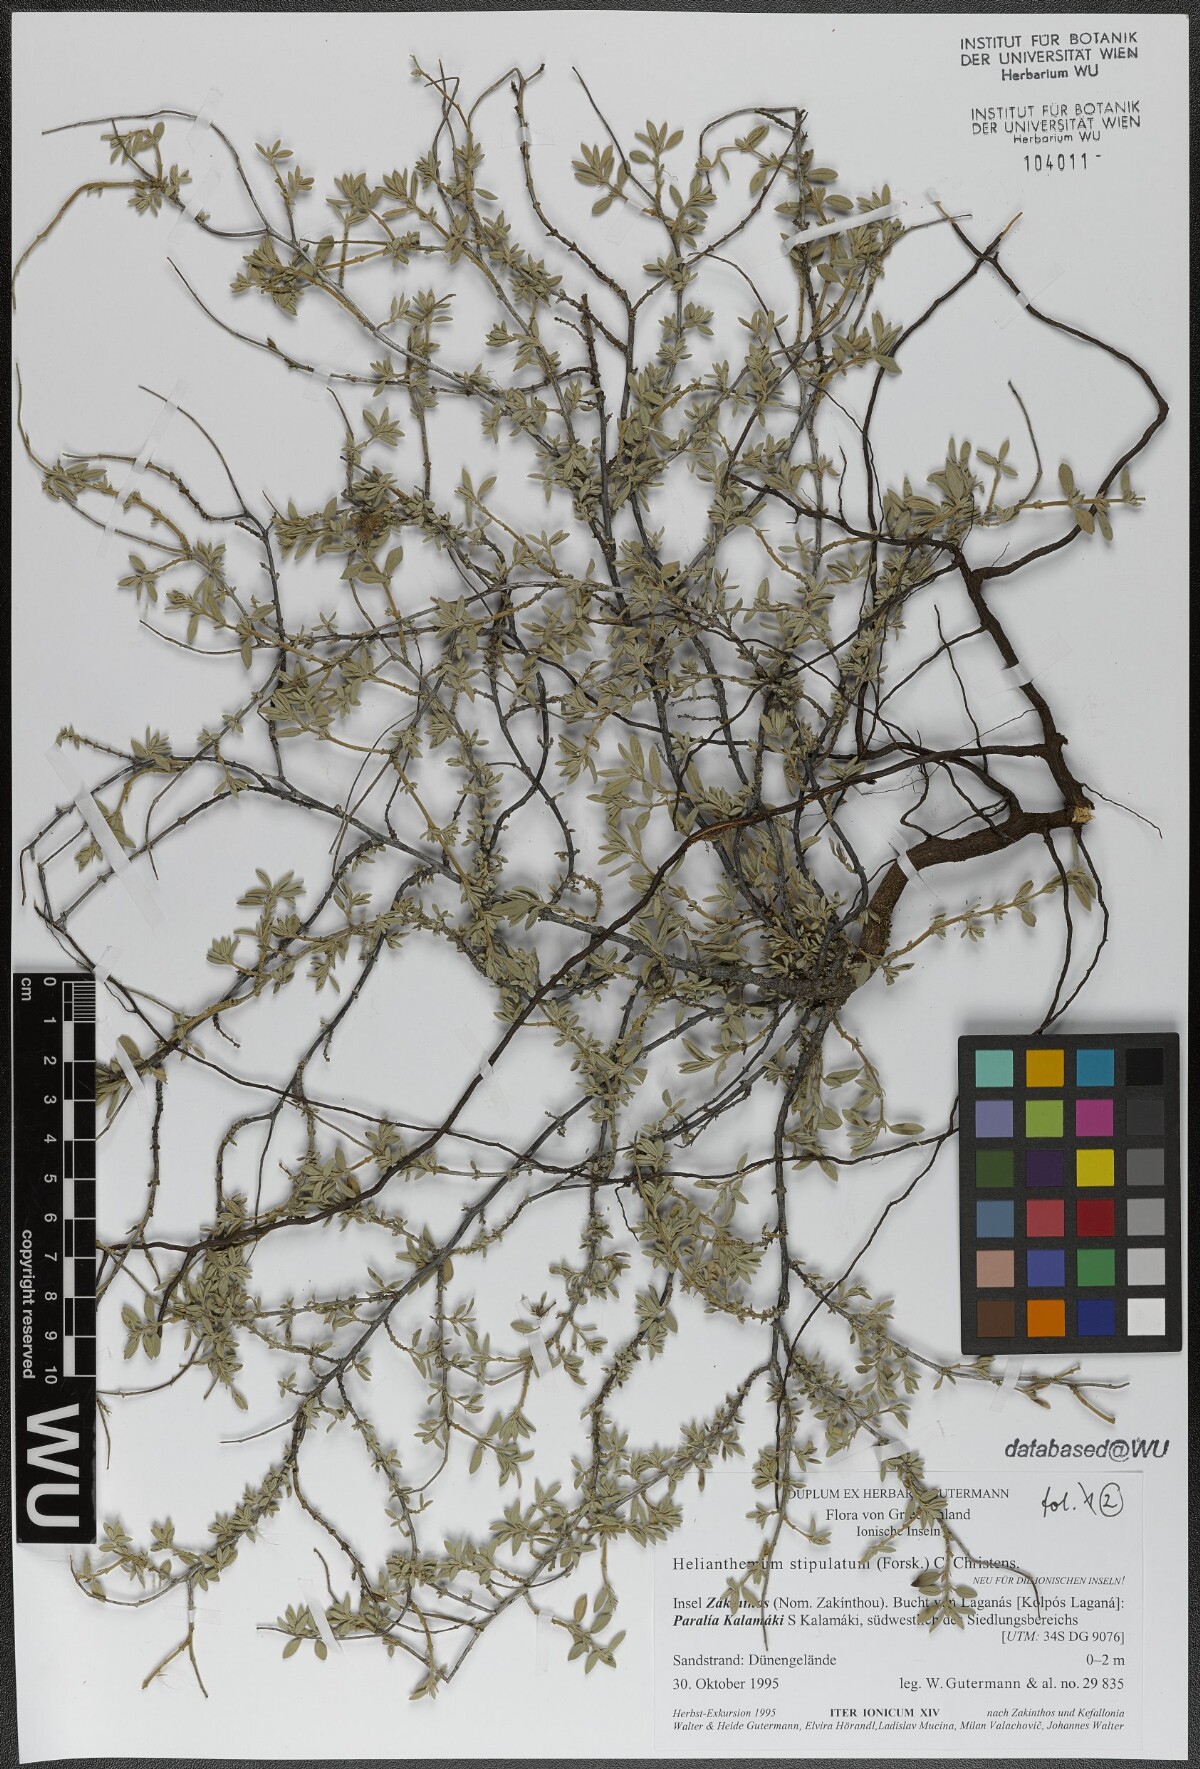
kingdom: Plantae
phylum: Tracheophyta
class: Magnoliopsida
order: Malvales
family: Cistaceae
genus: Helianthemum
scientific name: Helianthemum stipulatum
